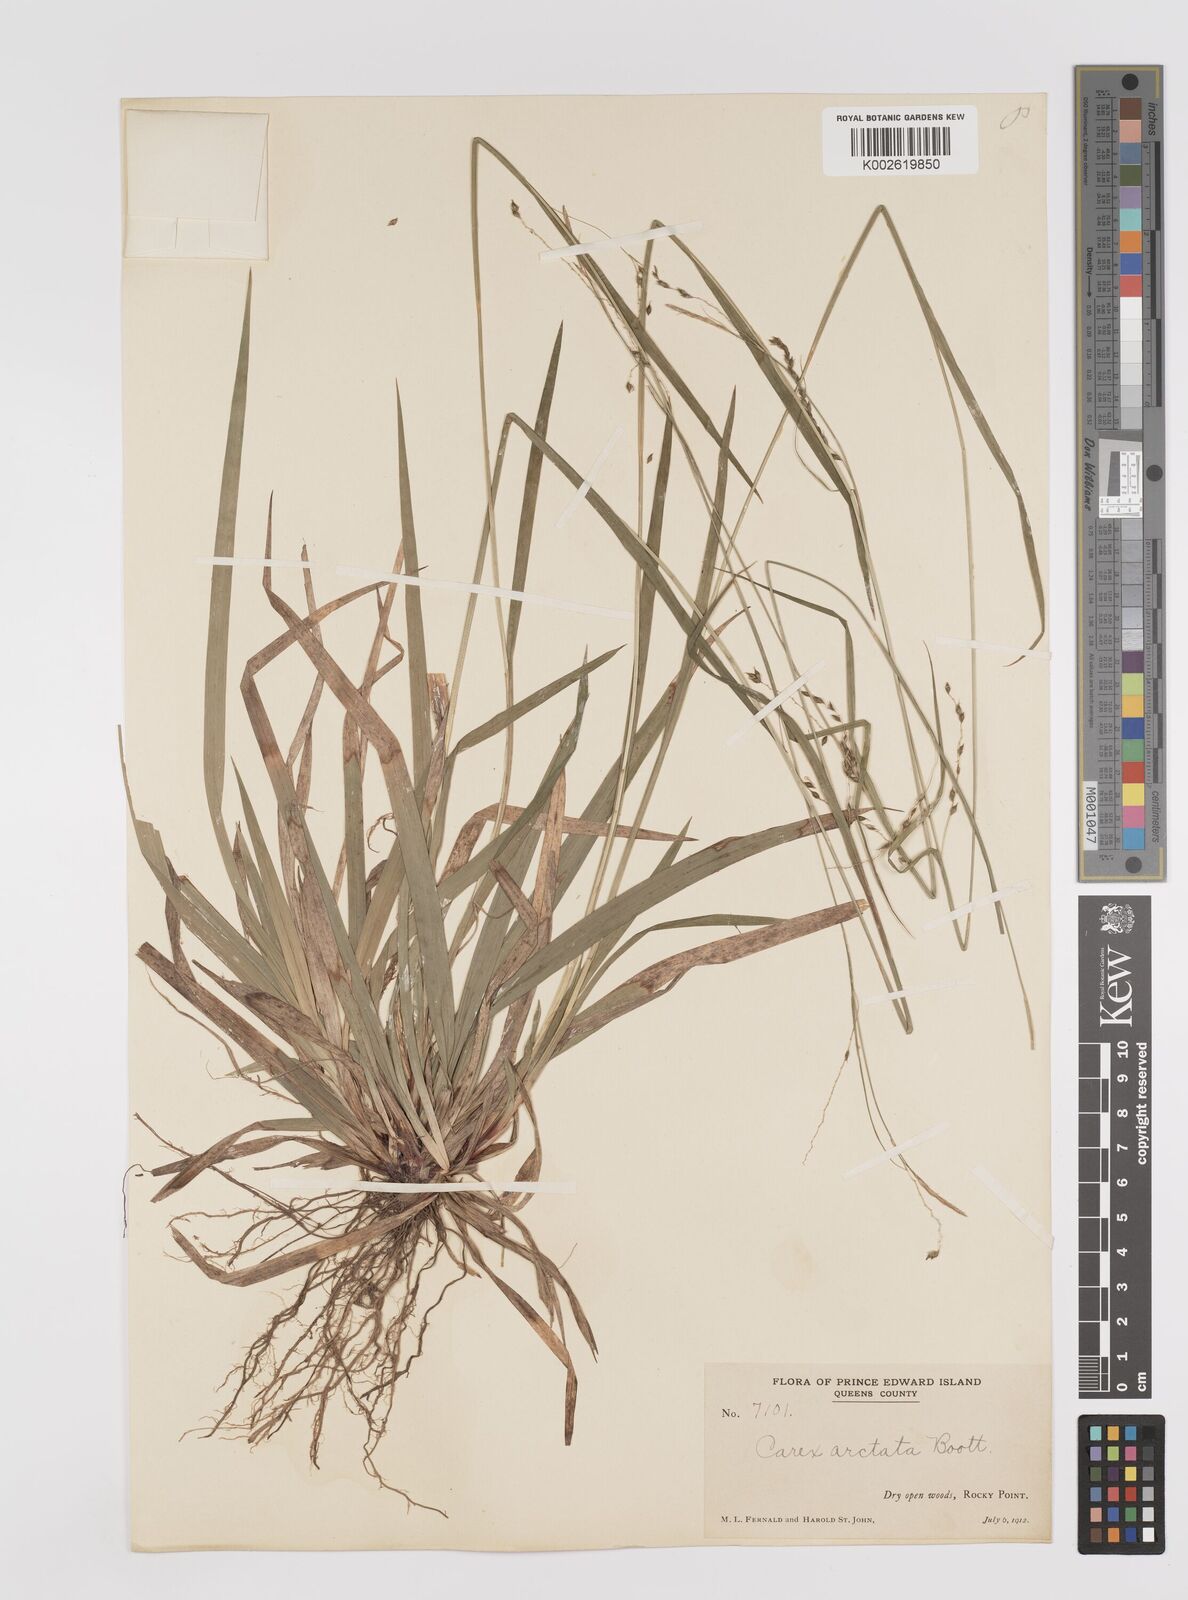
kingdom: Plantae
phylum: Tracheophyta
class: Liliopsida
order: Poales
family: Cyperaceae
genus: Carex
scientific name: Carex arctata
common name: Black sedge
